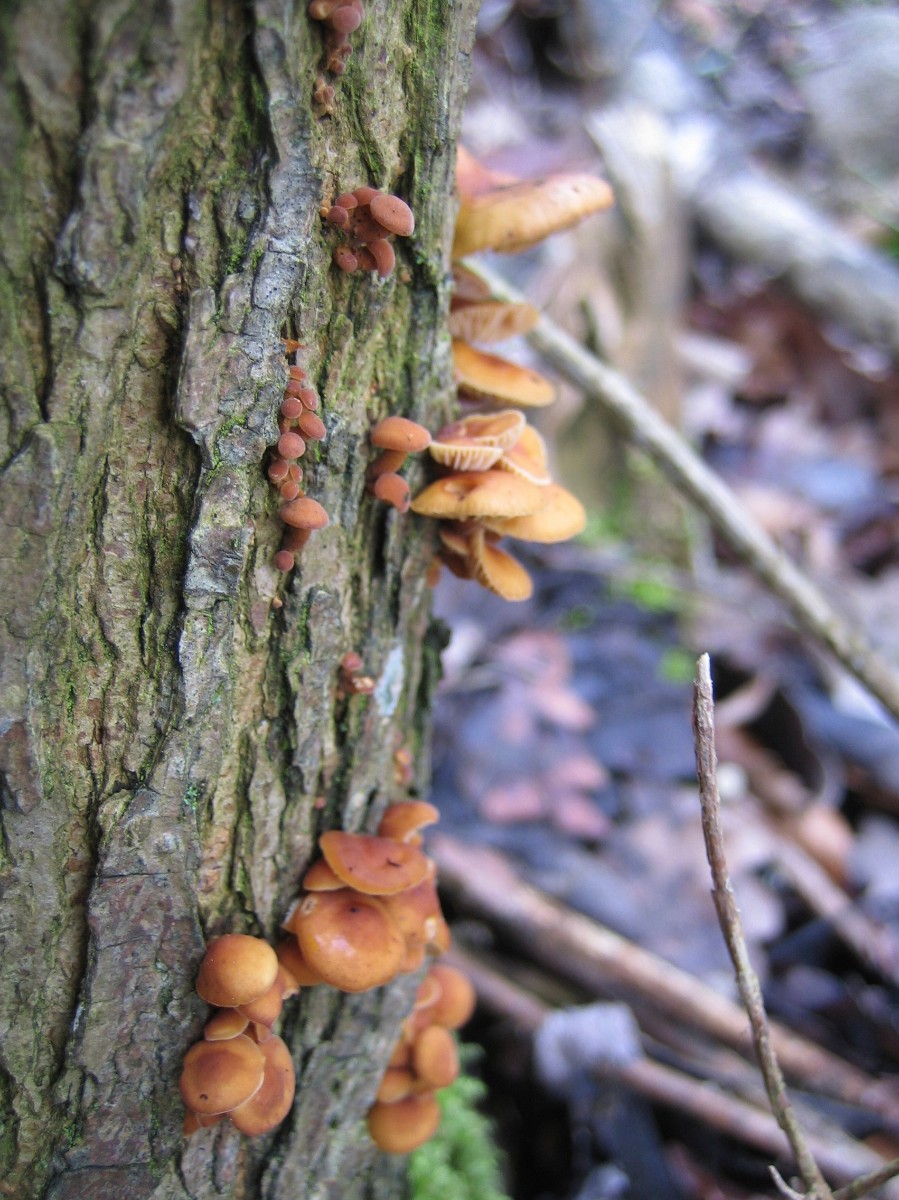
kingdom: Fungi
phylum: Basidiomycota
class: Agaricomycetes
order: Agaricales
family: Physalacriaceae
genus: Flammulina
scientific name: Flammulina velutipes
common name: gul fløjlsfod
